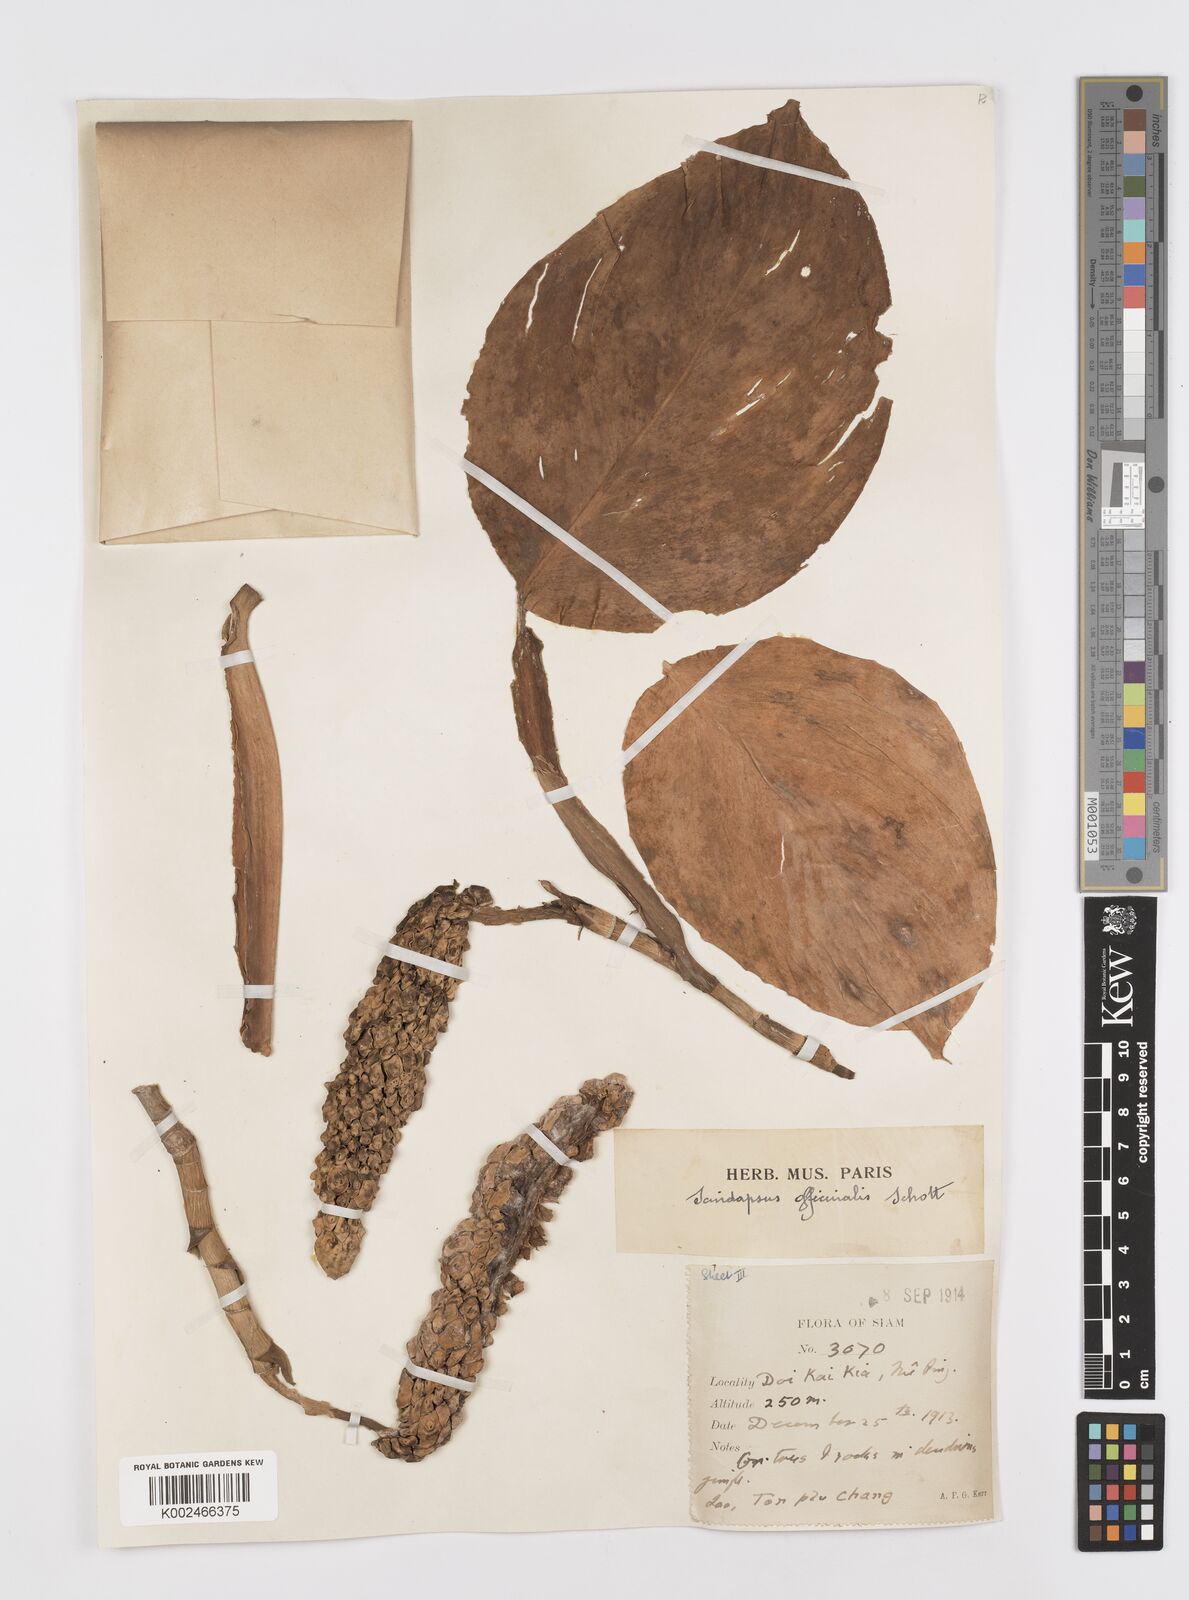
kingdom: Plantae
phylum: Tracheophyta
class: Liliopsida
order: Alismatales
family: Araceae
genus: Scindapsus
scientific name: Scindapsus officinalis
